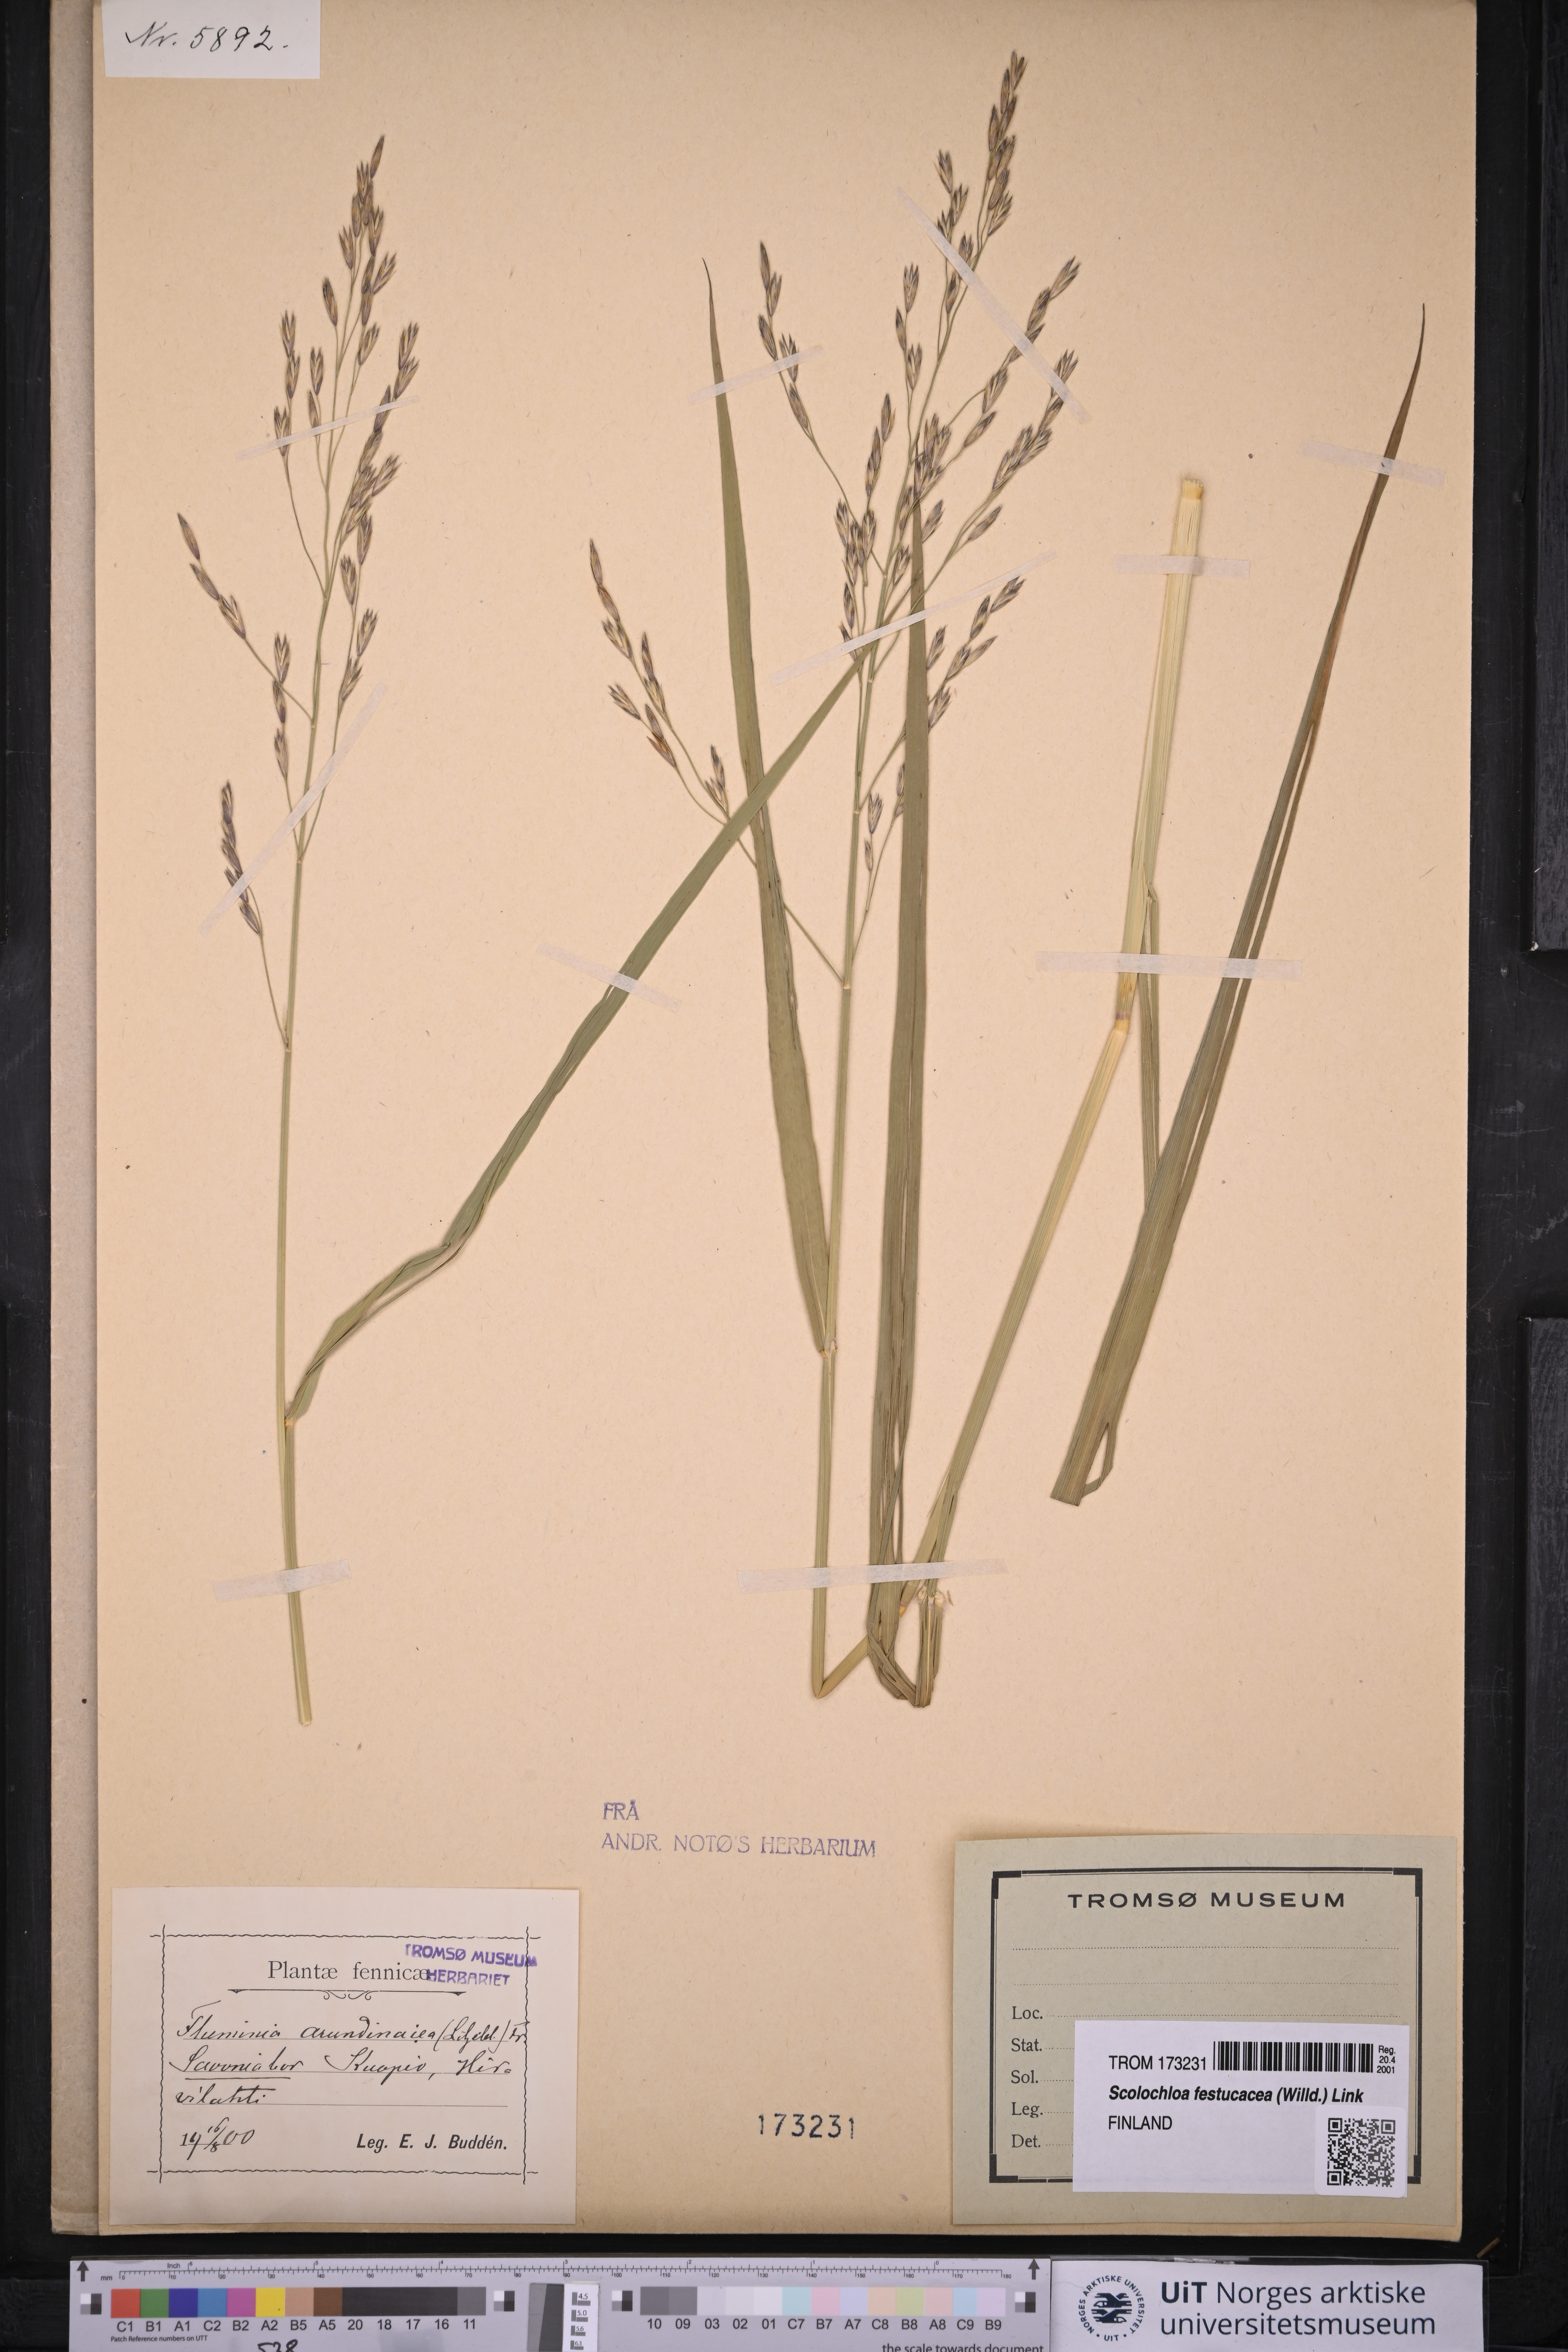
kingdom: Plantae
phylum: Tracheophyta
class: Liliopsida
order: Poales
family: Poaceae
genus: Scolochloa
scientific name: Scolochloa festucacea
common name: Common rivergrass
